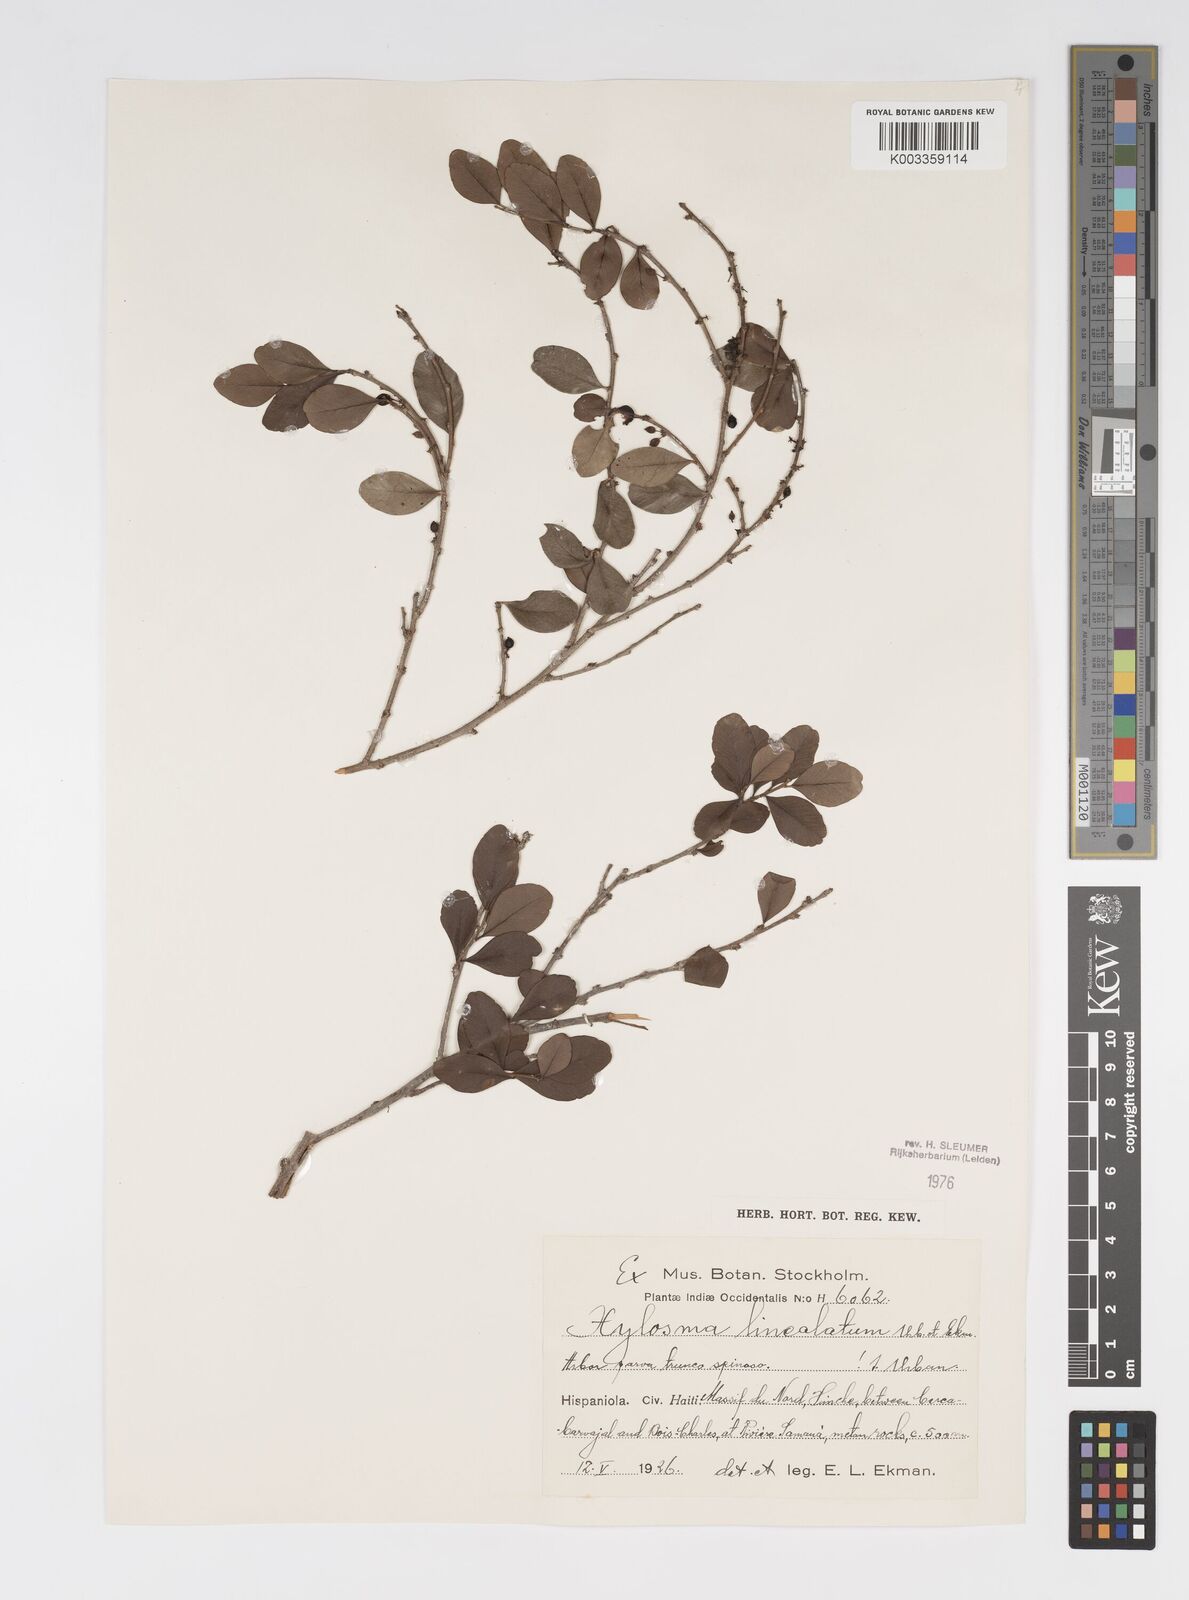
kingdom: Plantae
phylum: Tracheophyta
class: Magnoliopsida
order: Malpighiales
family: Salicaceae
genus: Xylosma
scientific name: Xylosma lineolata
